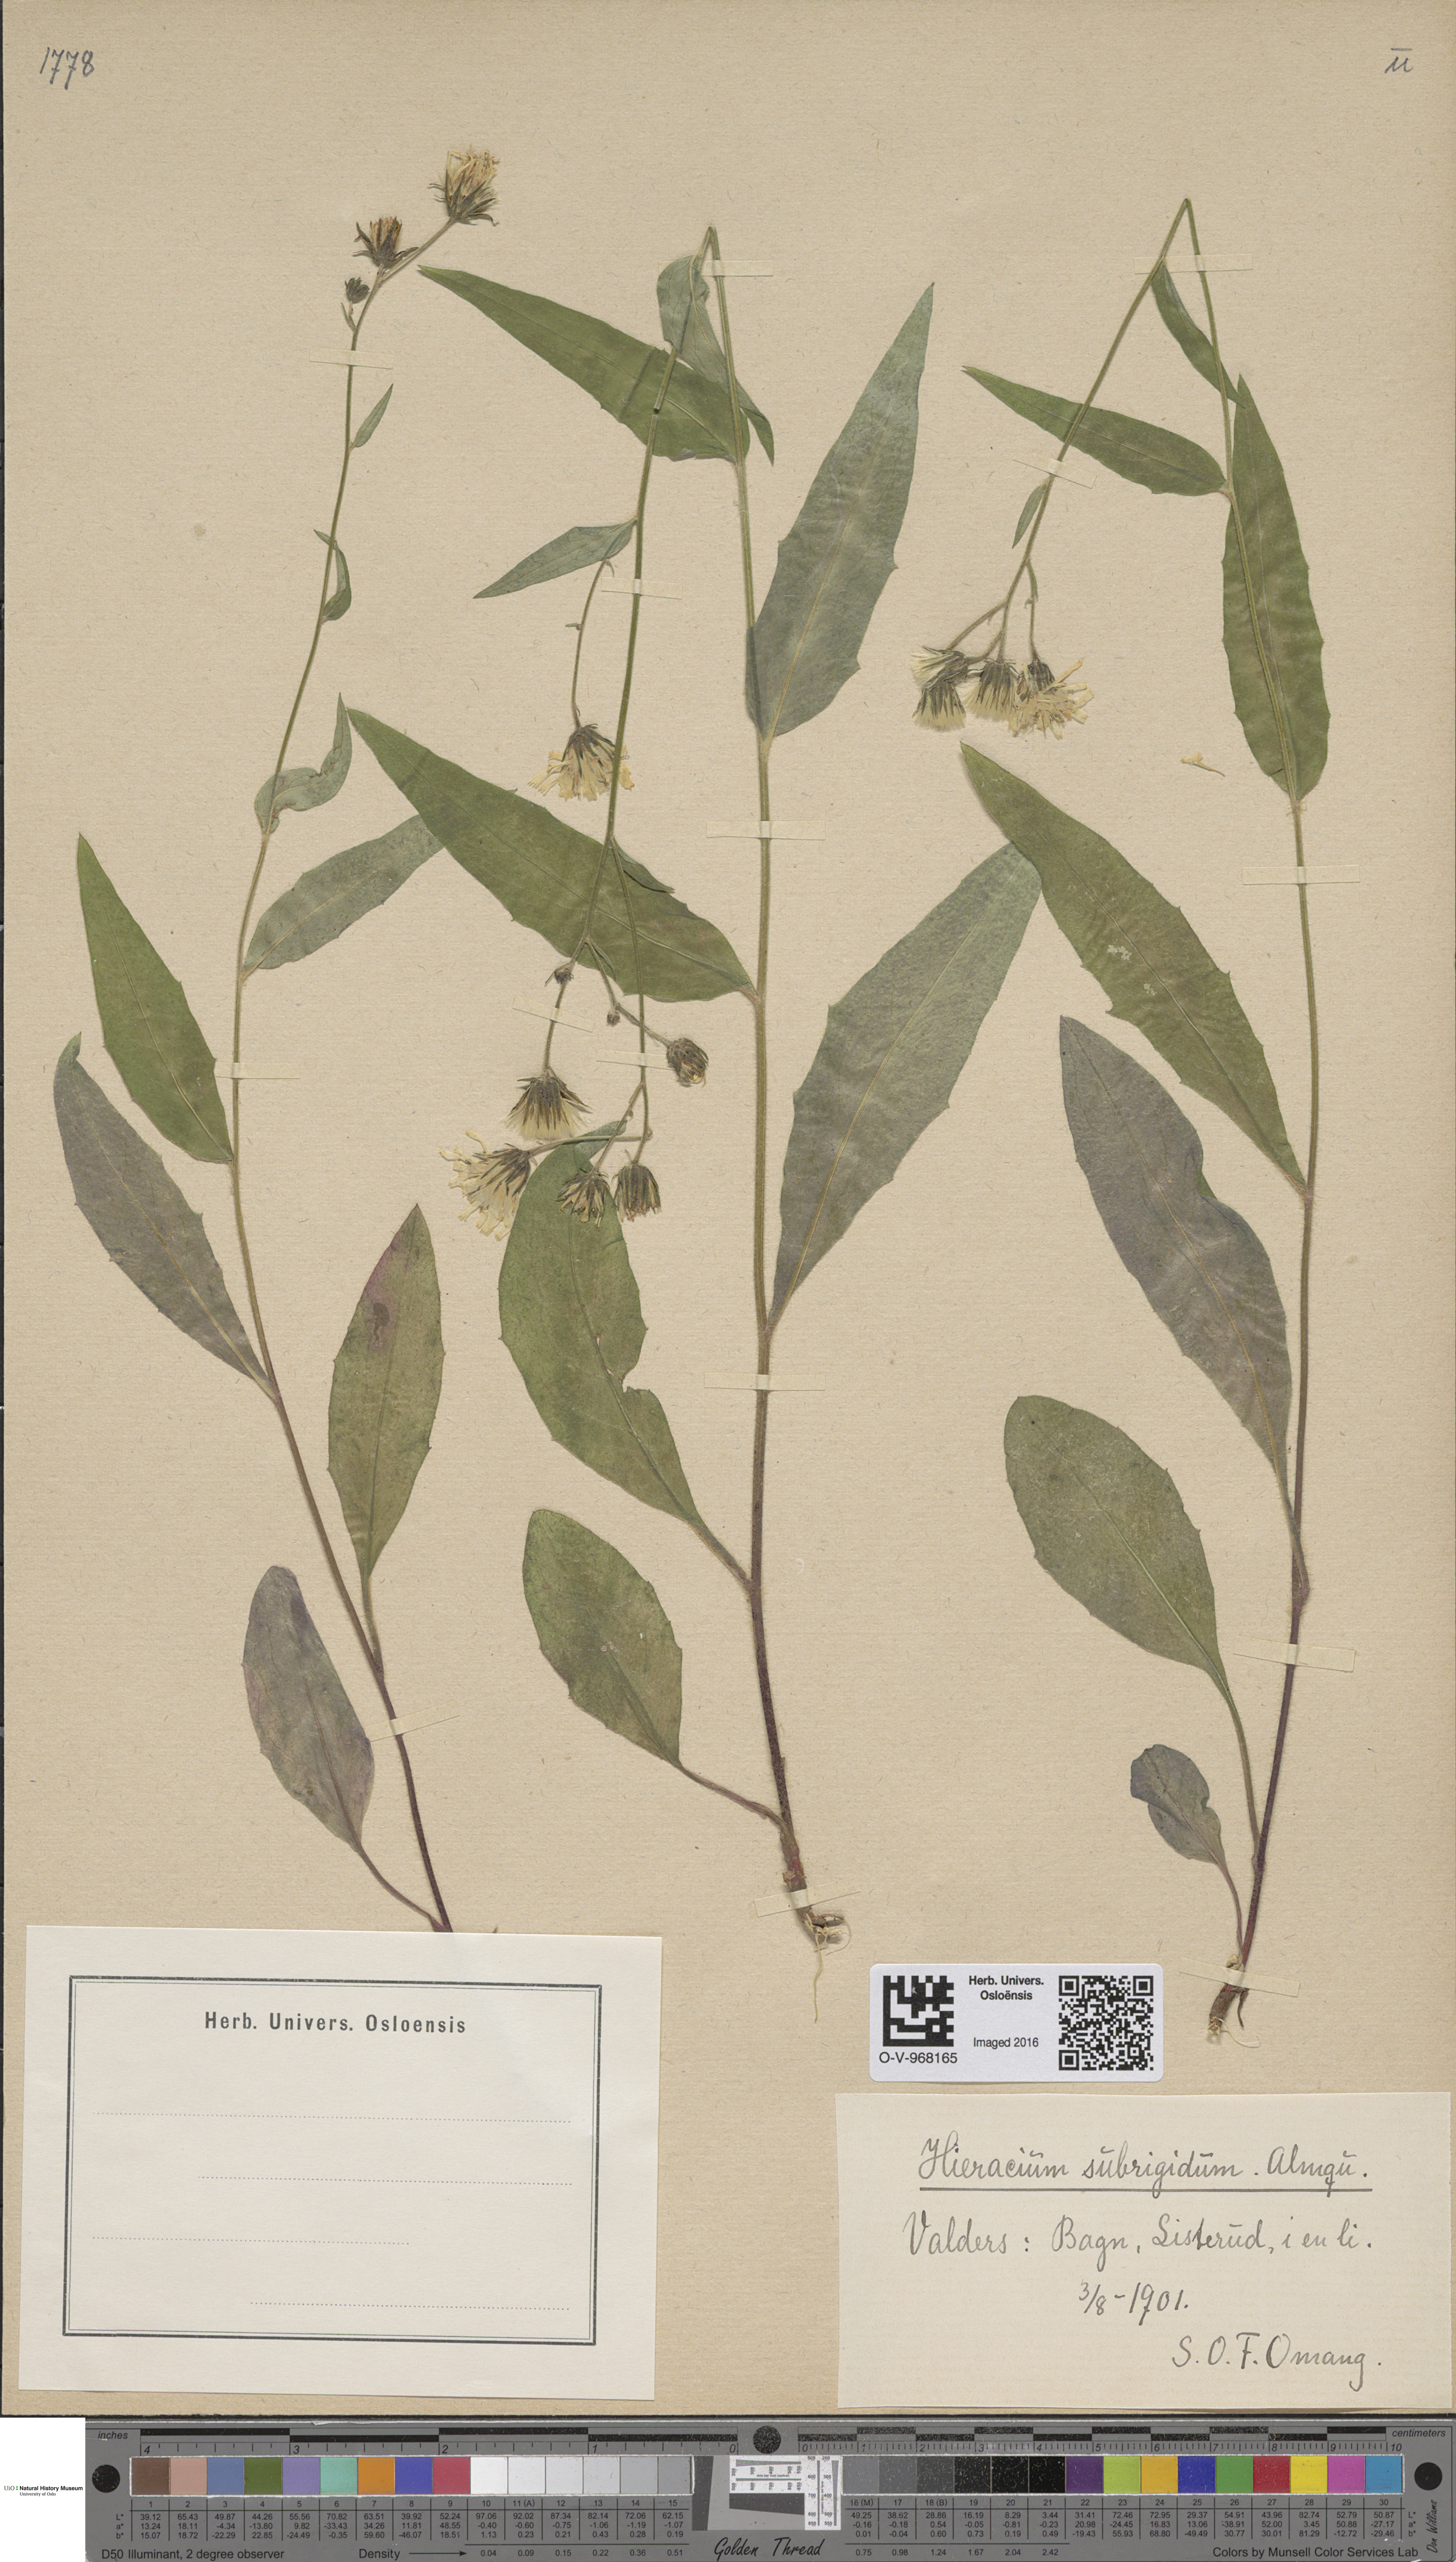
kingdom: Plantae
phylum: Tracheophyta
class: Magnoliopsida
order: Asterales
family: Asteraceae
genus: Hieracium
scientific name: Hieracium subrigidum
